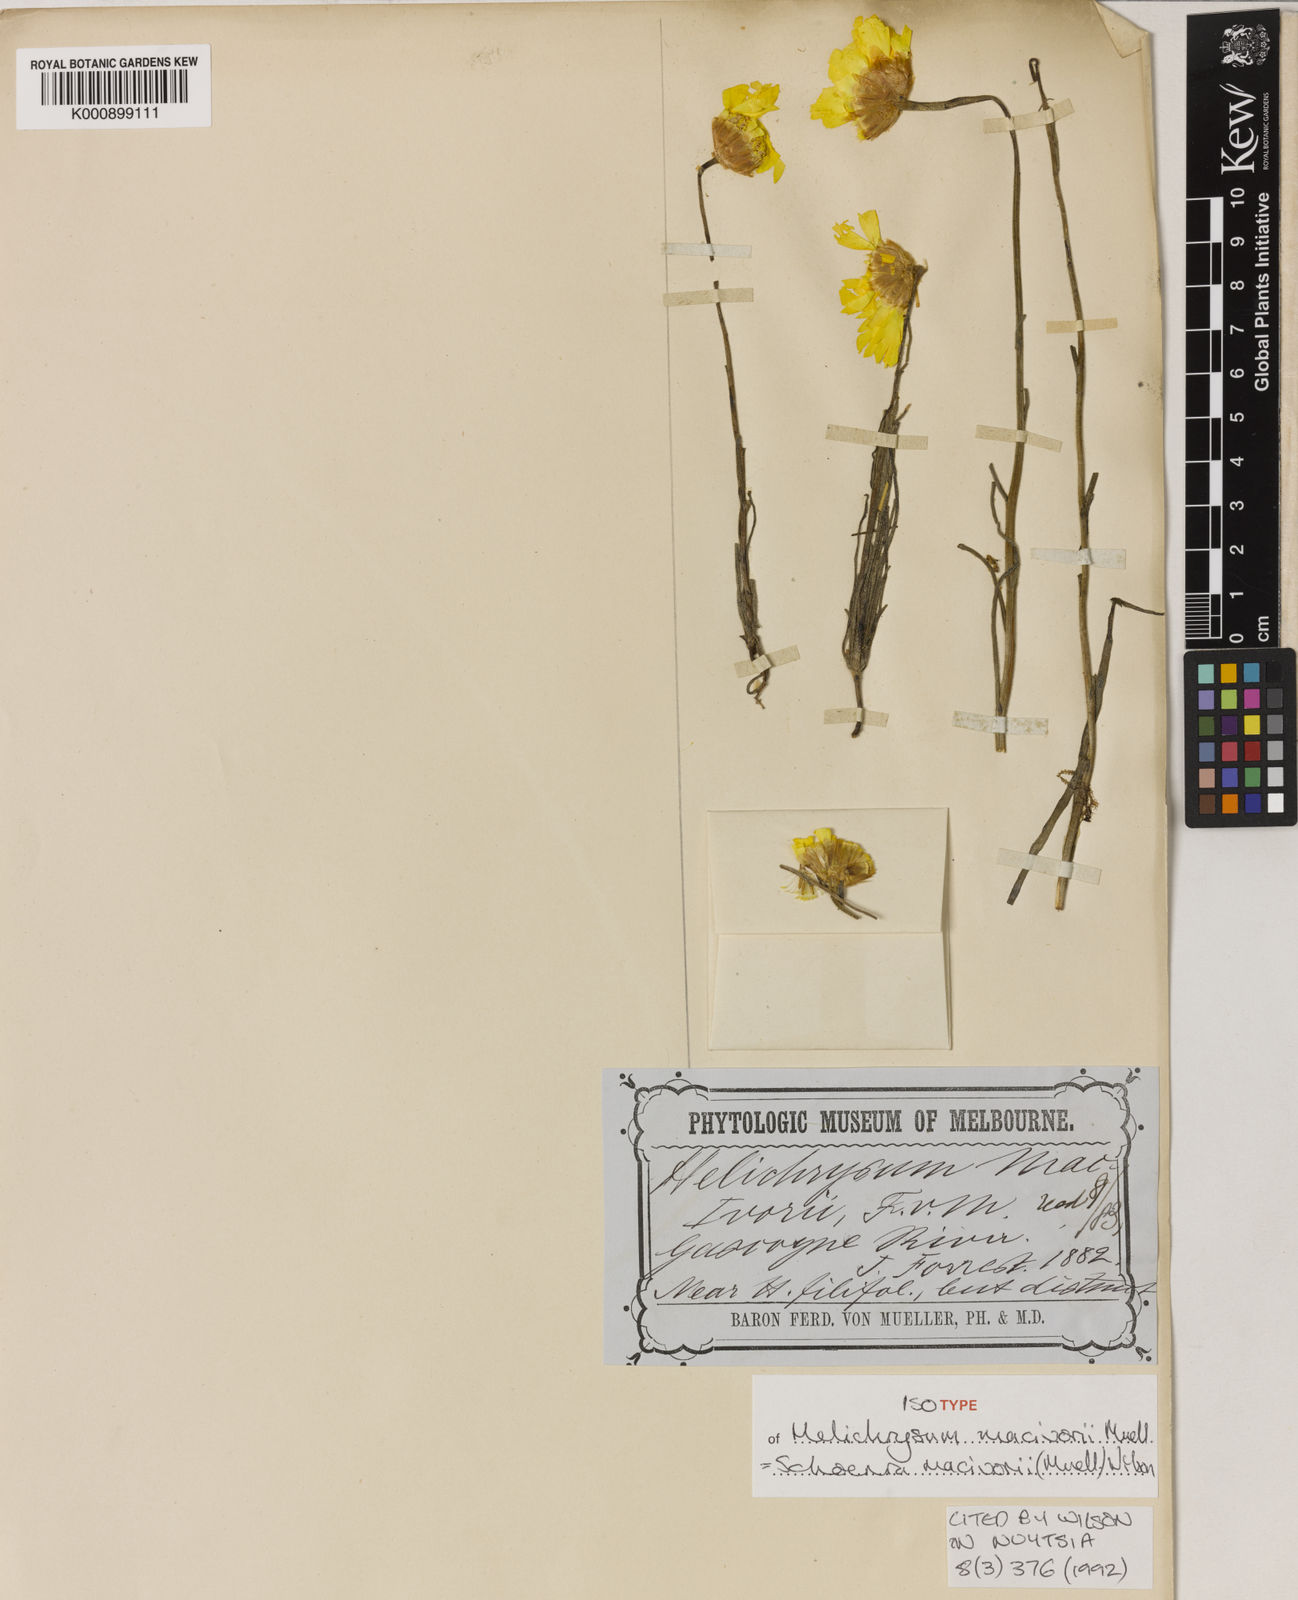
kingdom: Plantae
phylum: Tracheophyta
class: Magnoliopsida
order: Asterales
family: Asteraceae
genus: Schoenia
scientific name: Schoenia macivorii
